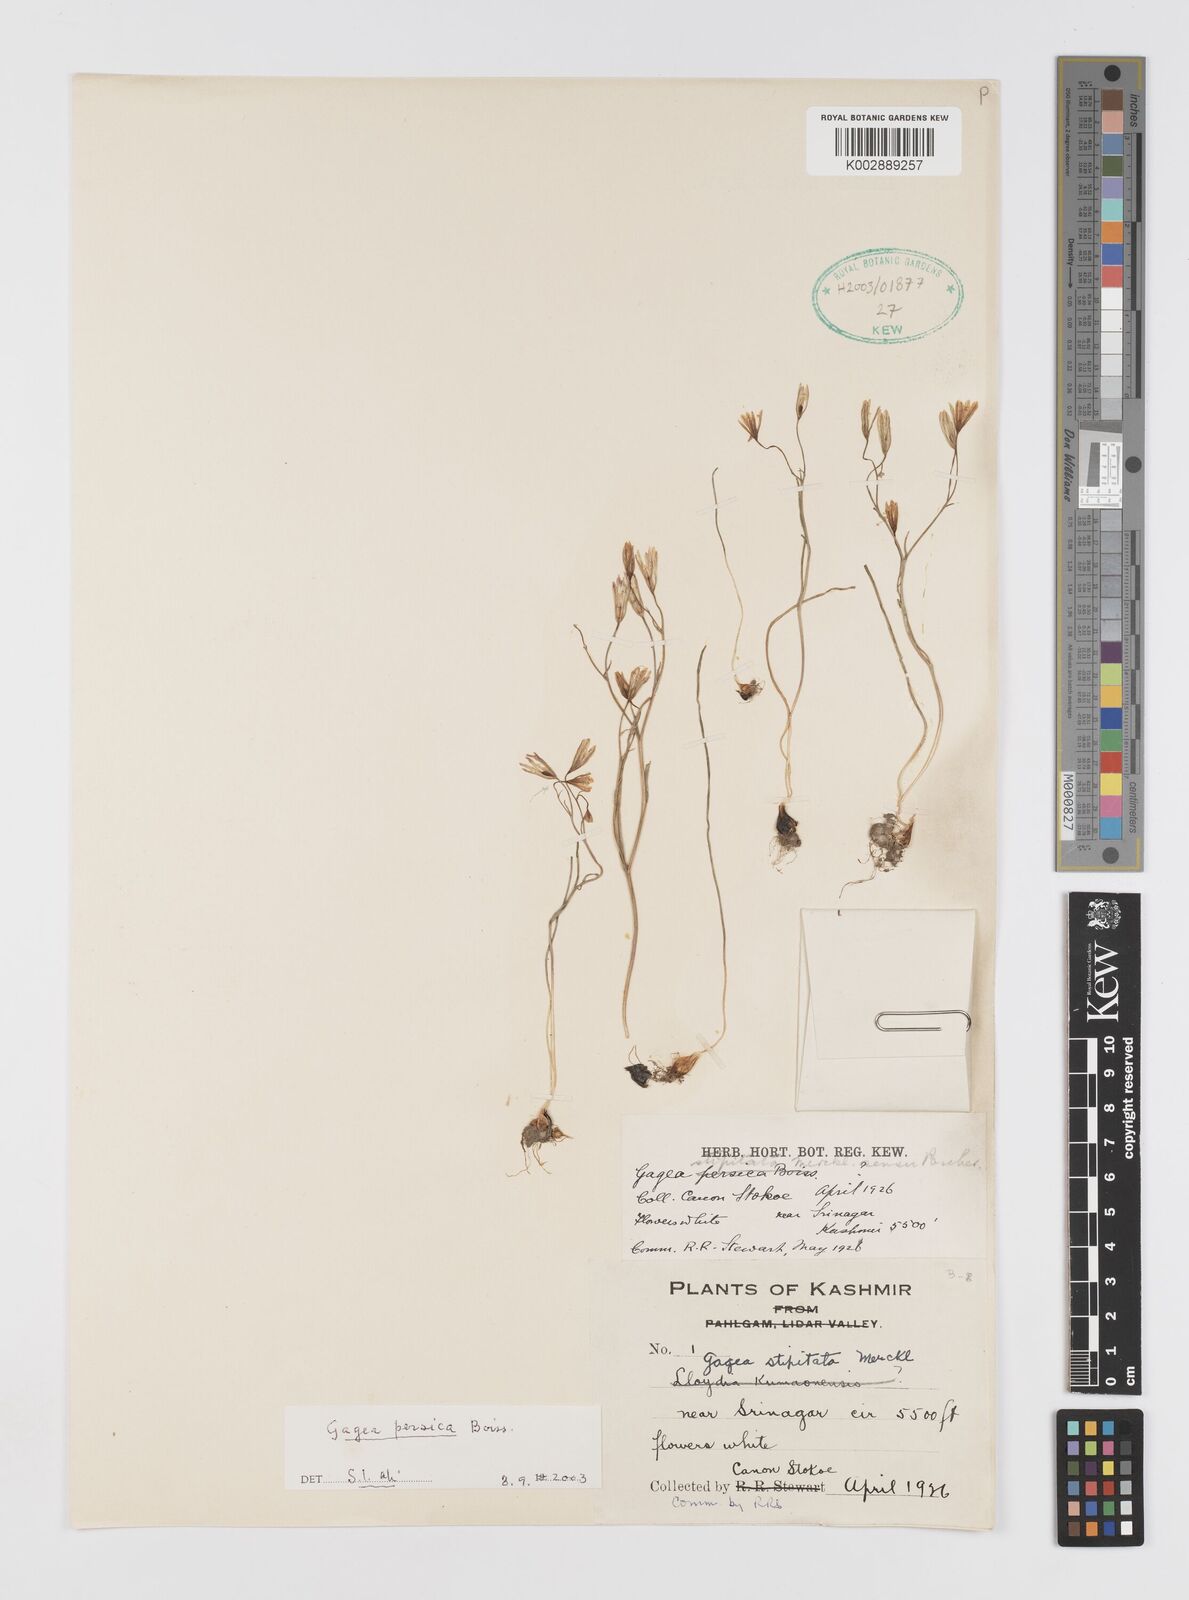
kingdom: Plantae
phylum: Tracheophyta
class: Liliopsida
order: Liliales
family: Liliaceae
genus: Gagea
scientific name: Gagea gageoides
